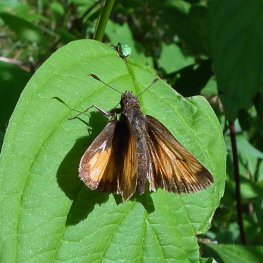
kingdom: Animalia
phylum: Arthropoda
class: Insecta
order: Lepidoptera
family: Hesperiidae
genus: Lon
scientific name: Lon hobomok
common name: Hobomok Skipper
